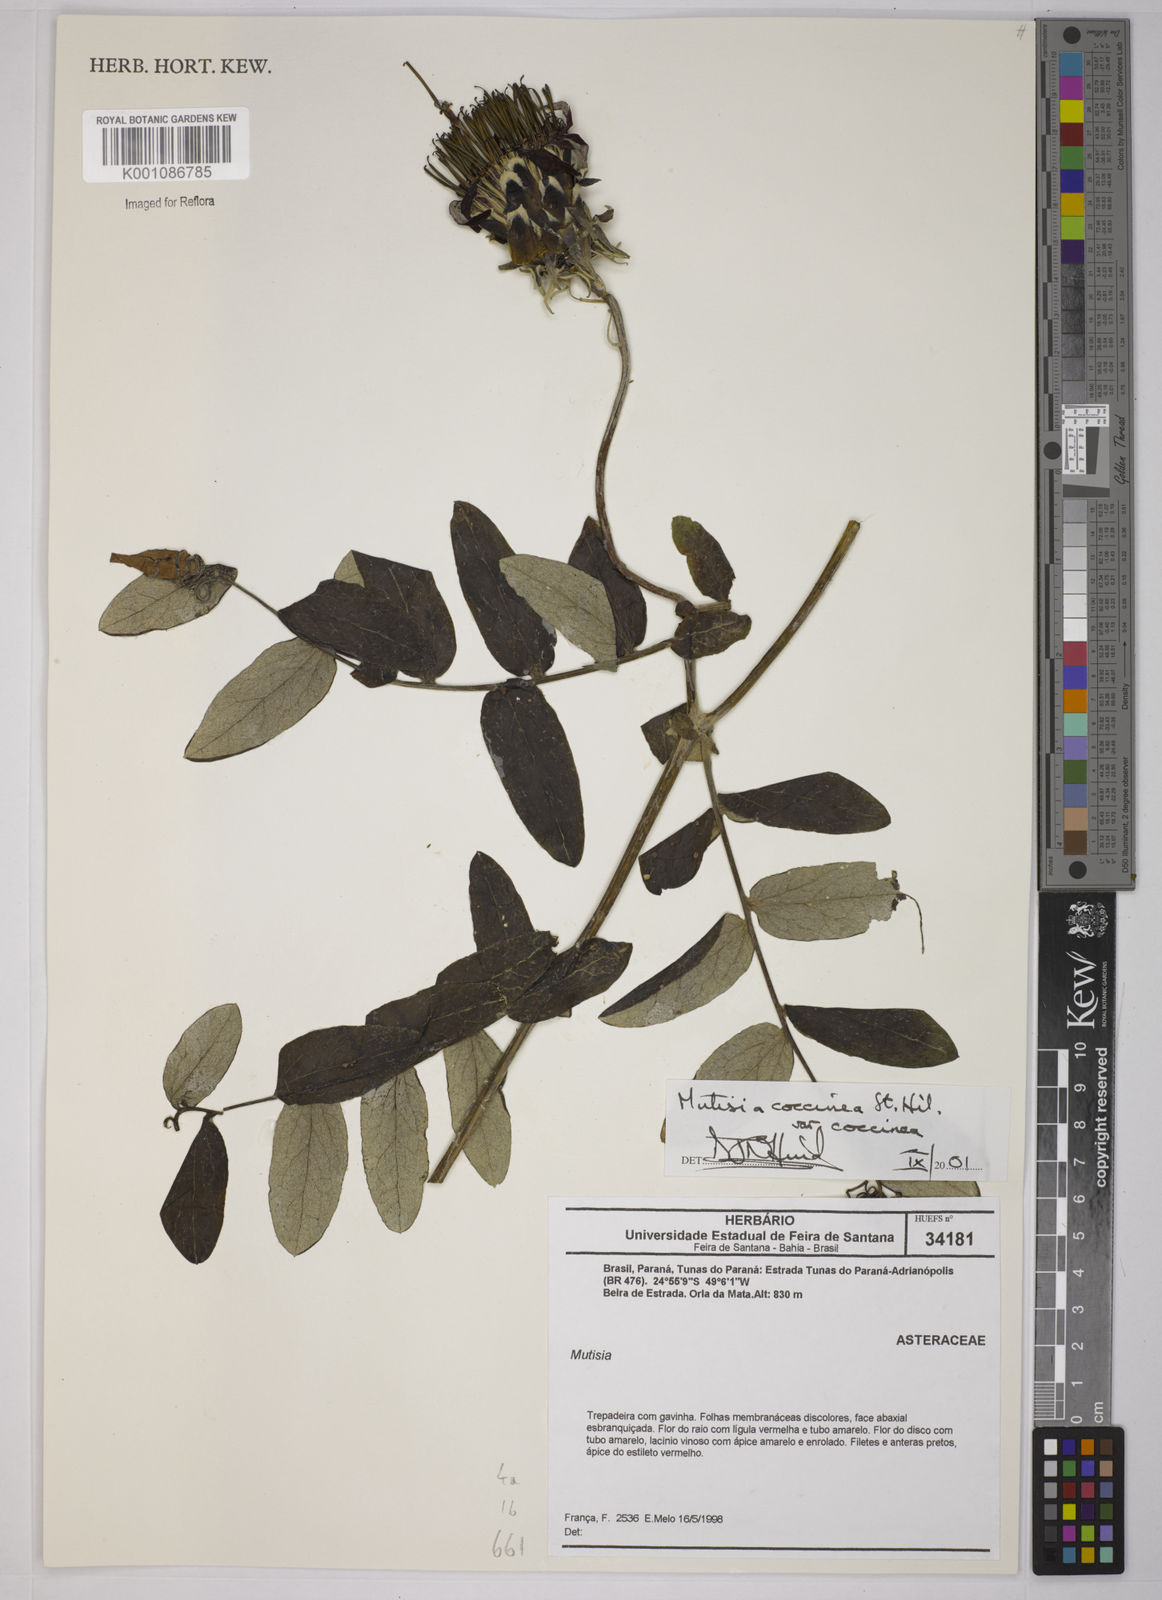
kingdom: Plantae
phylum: Tracheophyta
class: Magnoliopsida
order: Asterales
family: Asteraceae
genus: Mutisia
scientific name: Mutisia coccinea
